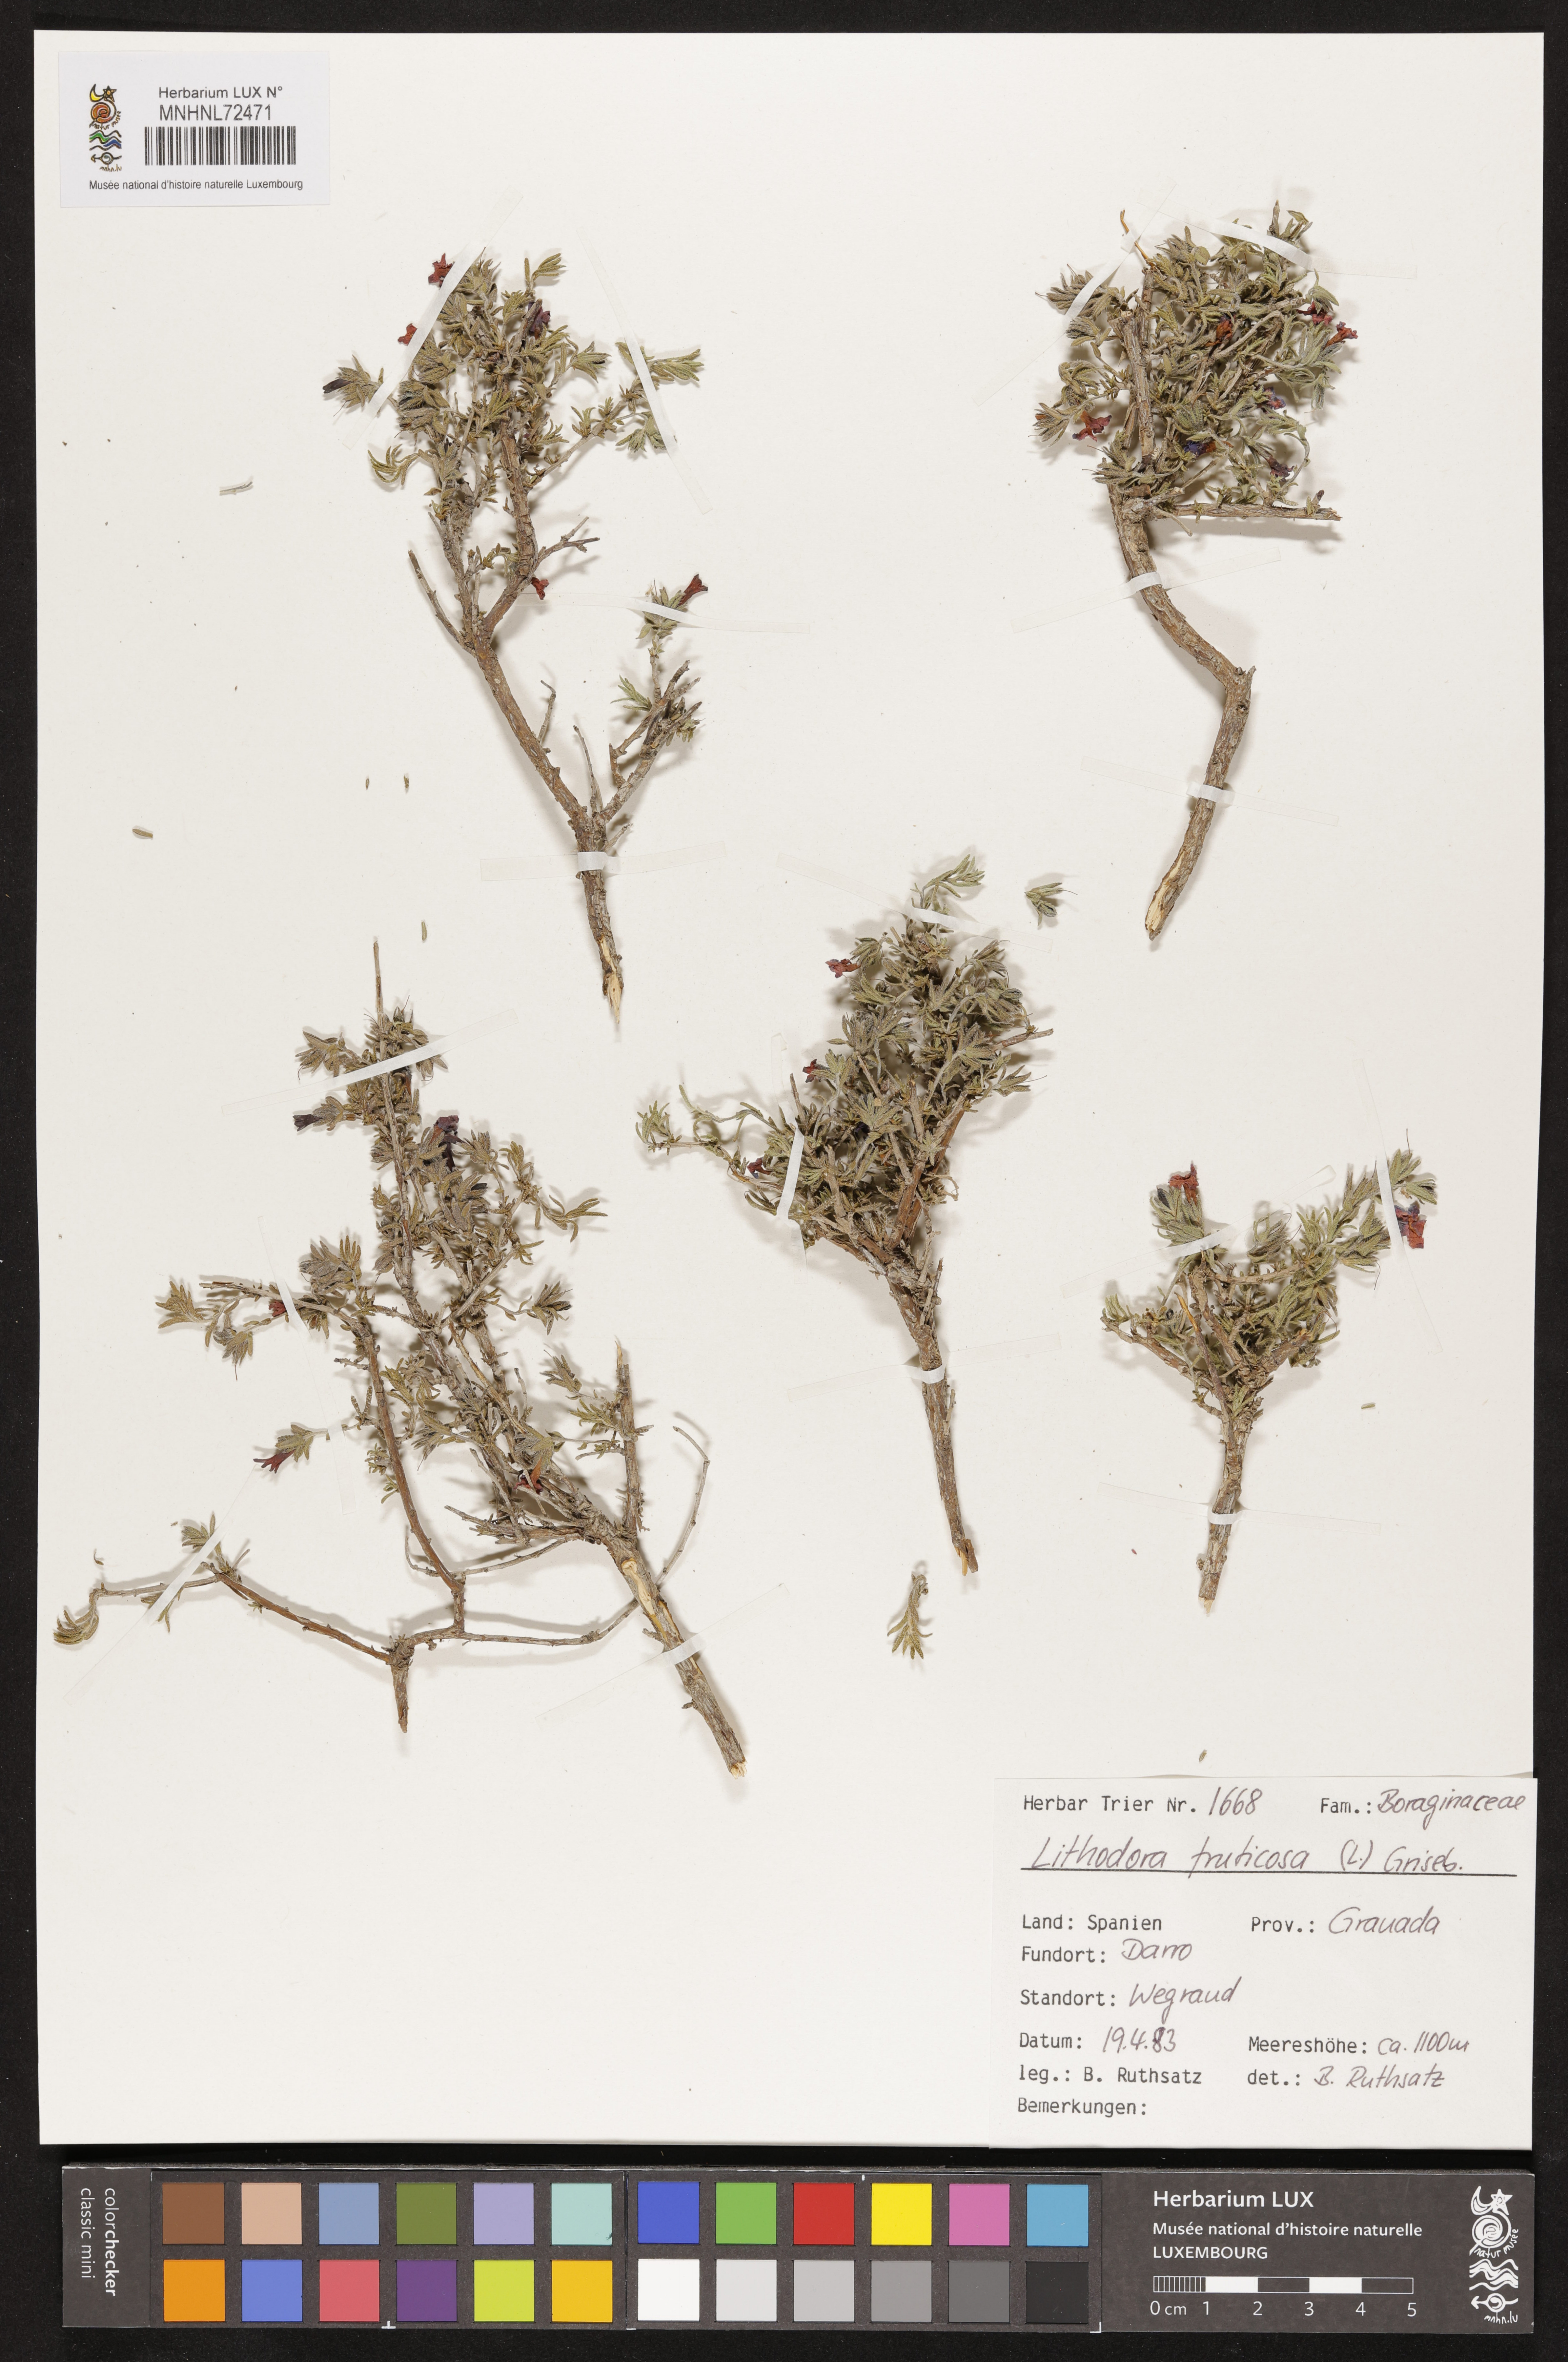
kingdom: Plantae
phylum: Tracheophyta
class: Magnoliopsida
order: Boraginales
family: Boraginaceae
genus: Lithodora
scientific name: Lithodora fruticosa
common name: Shrubby gromwell
